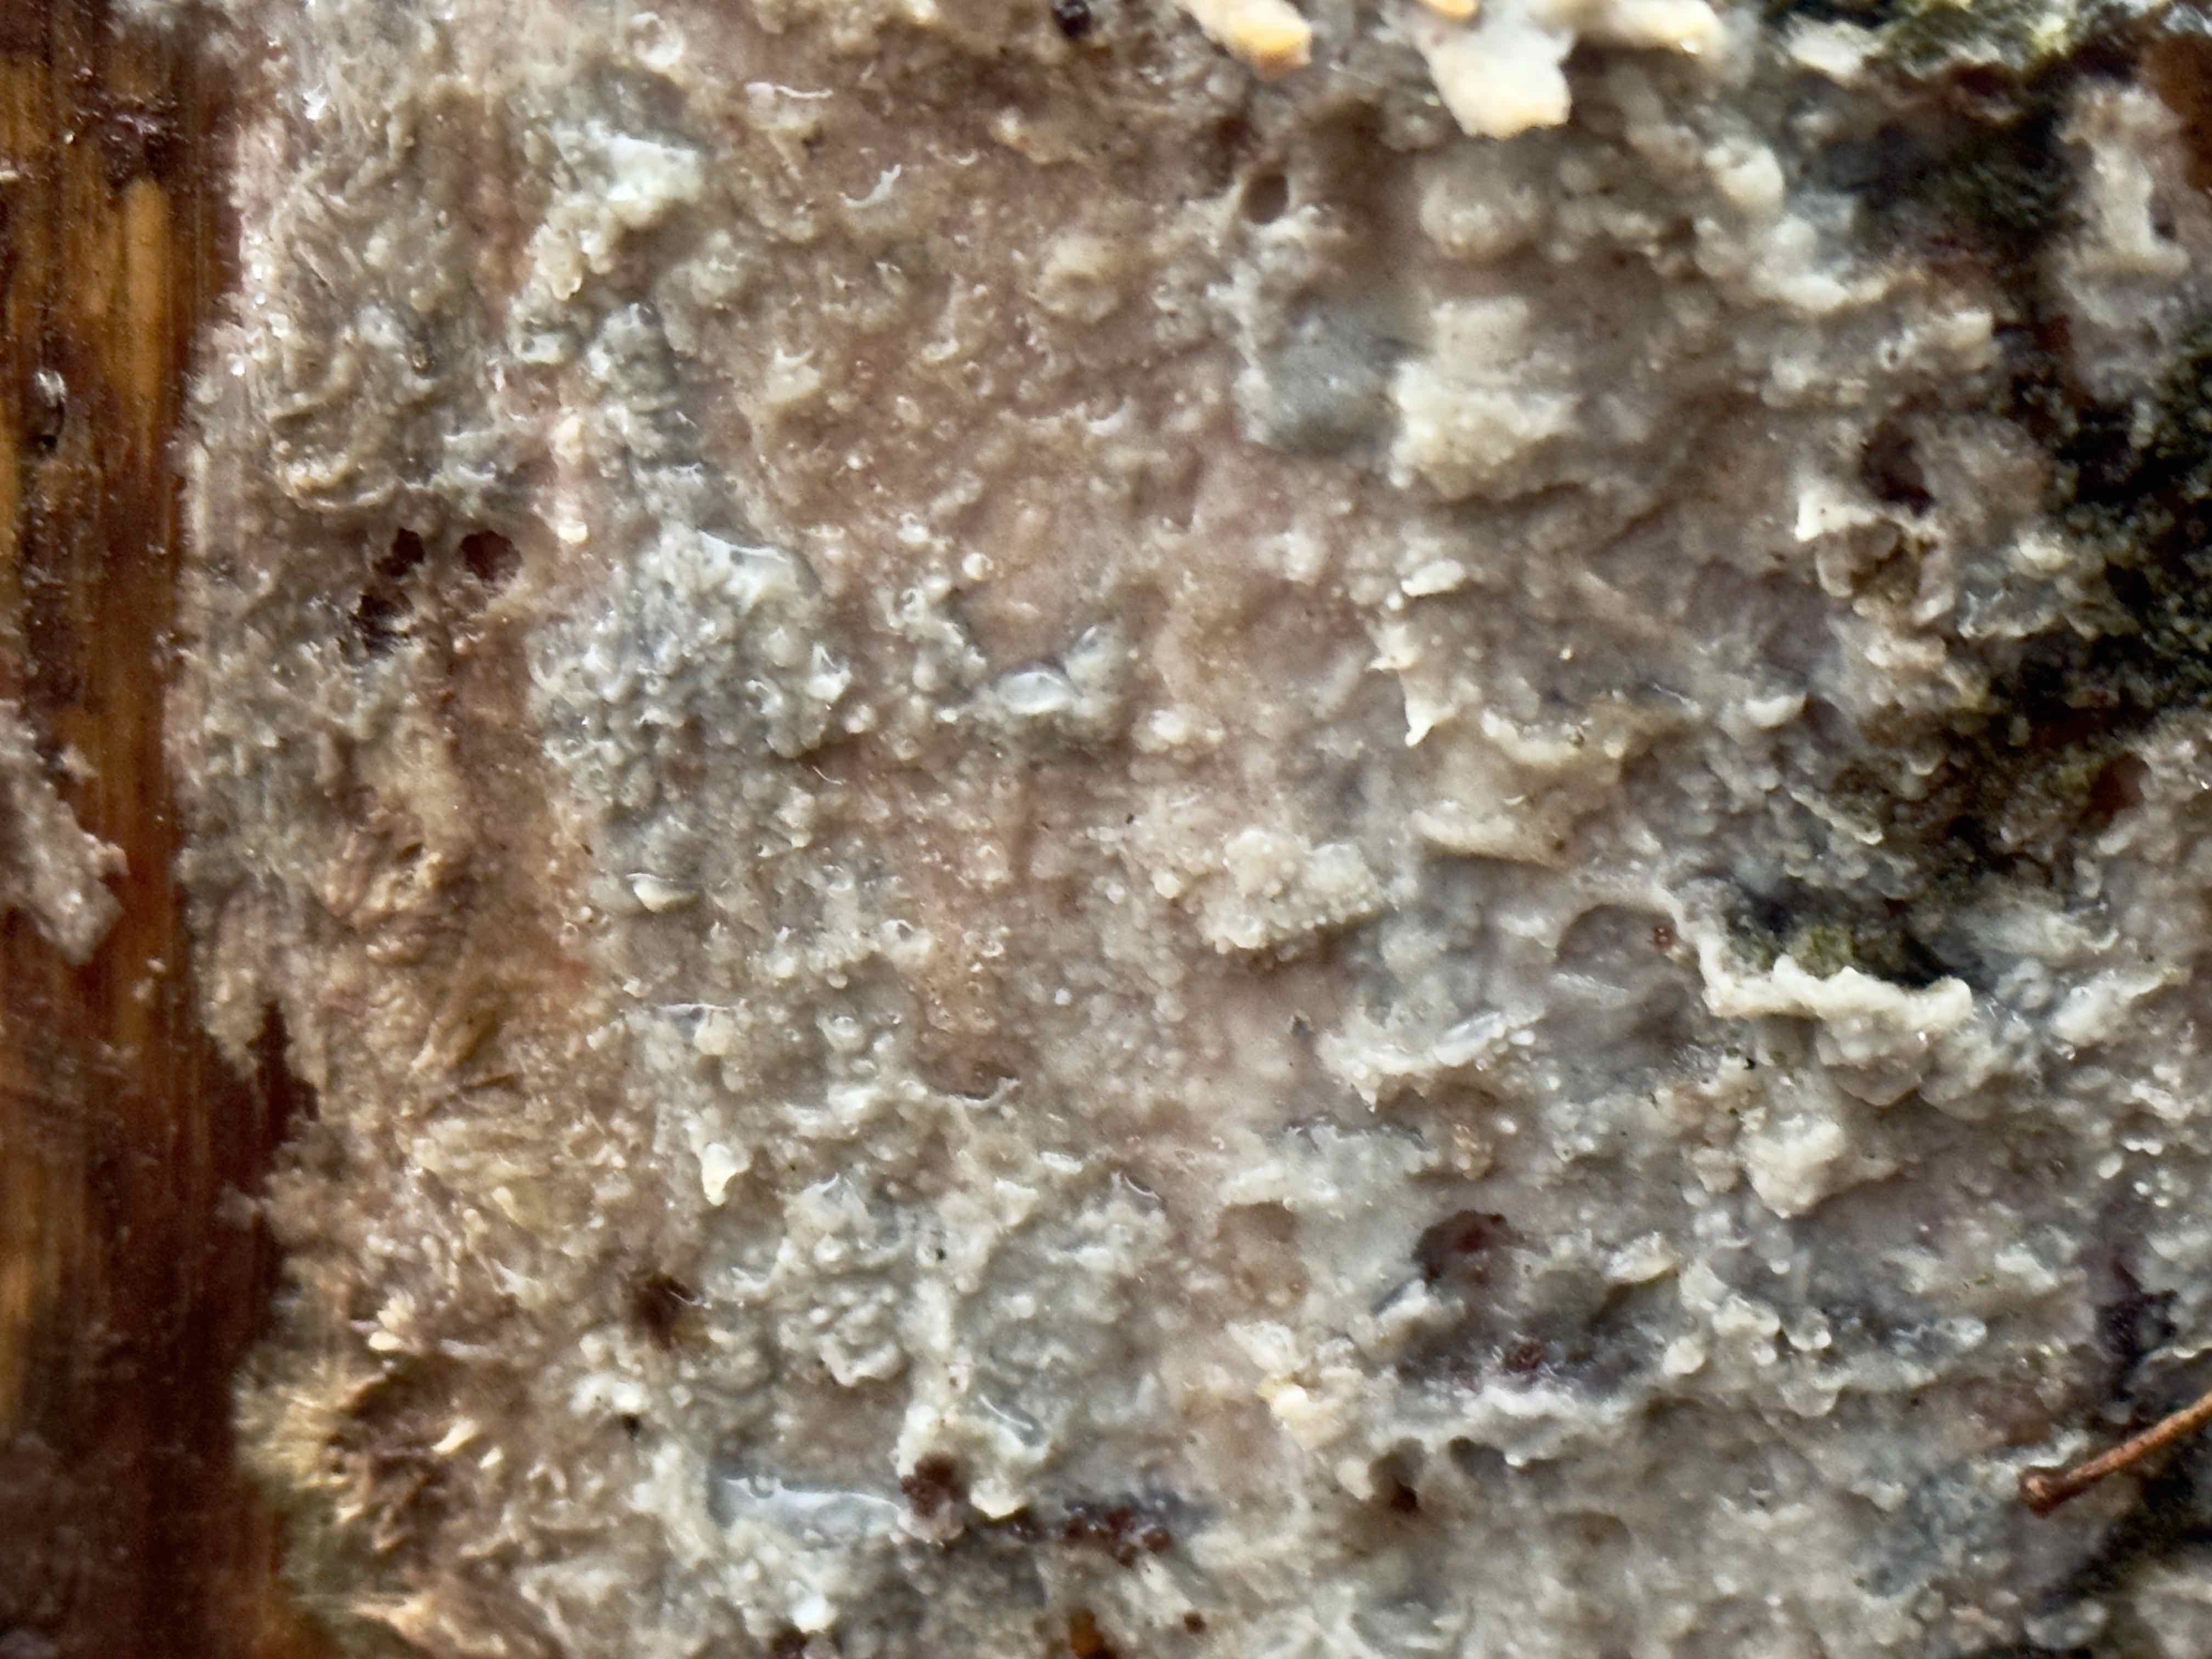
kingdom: Fungi
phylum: Basidiomycota
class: Agaricomycetes
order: Polyporales
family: Phanerochaetaceae
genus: Phlebiopsis
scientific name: Phlebiopsis gigantea
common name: kæmpebarksvamp
